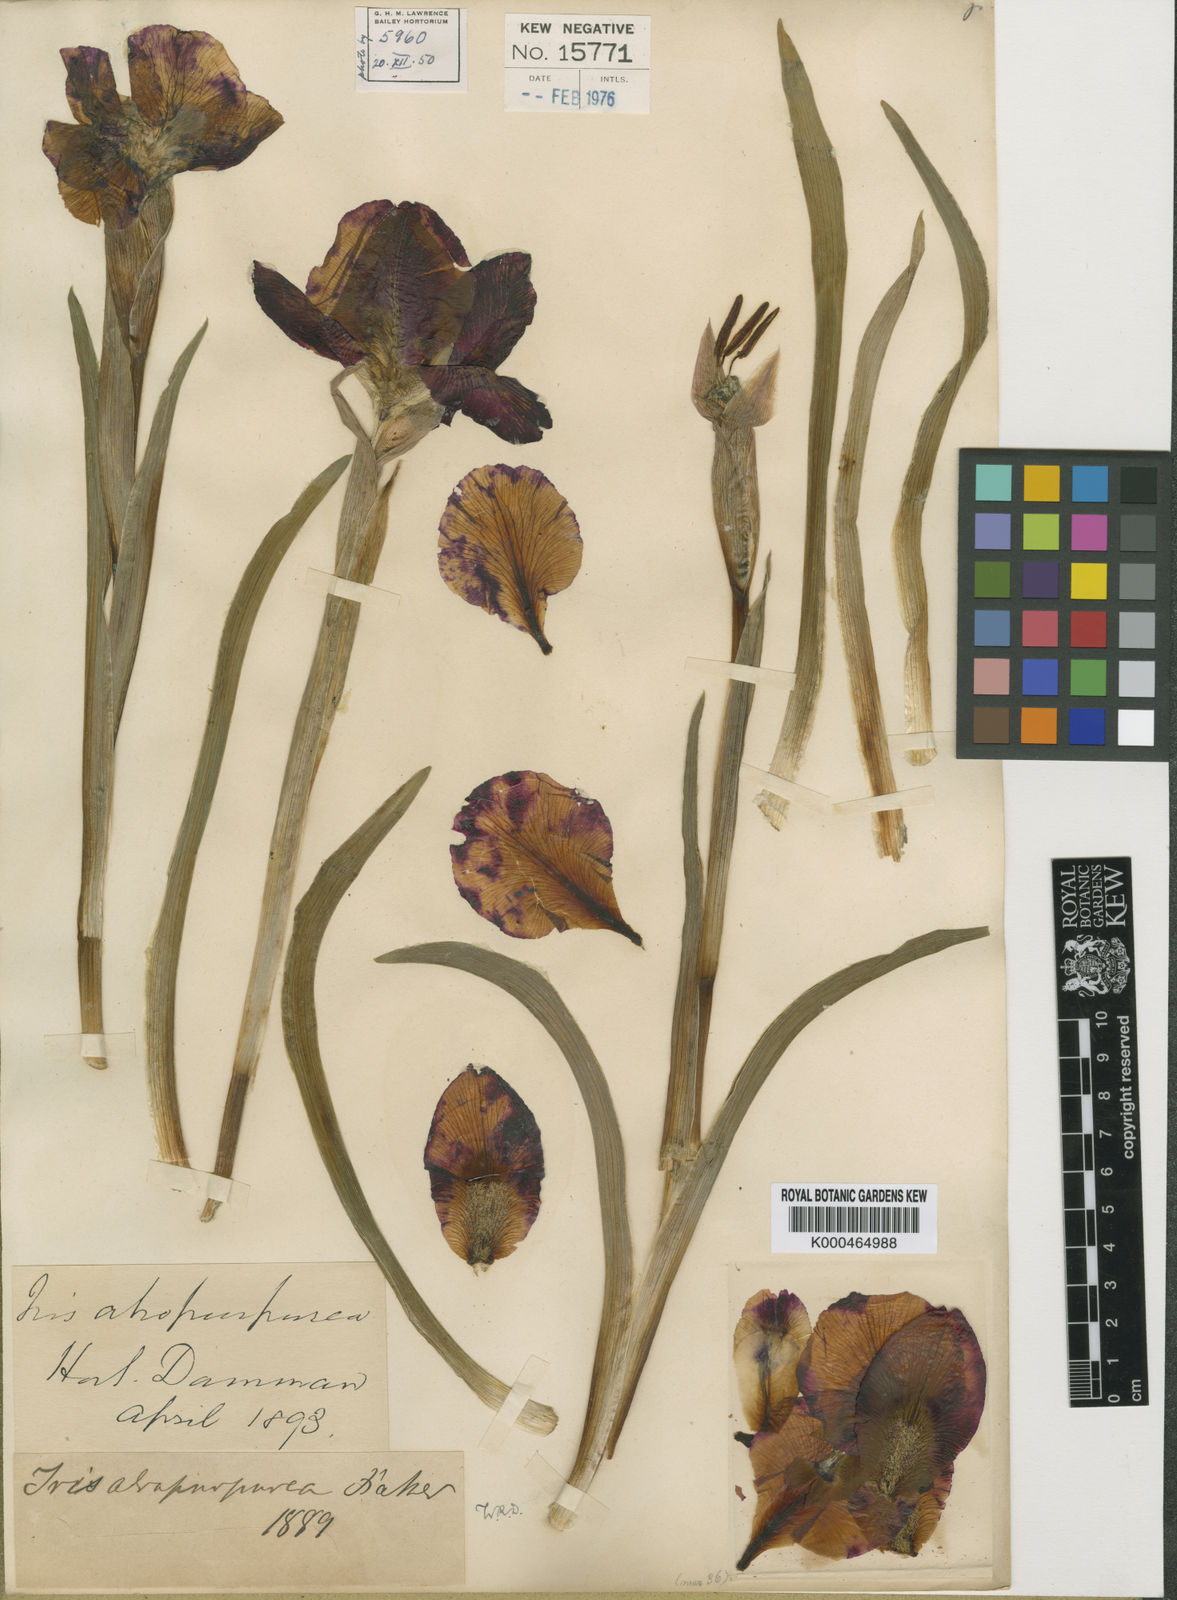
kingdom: Plantae
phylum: Tracheophyta
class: Liliopsida
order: Asparagales
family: Iridaceae
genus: Iris
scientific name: Iris atropurpurea
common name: Coastal iris
